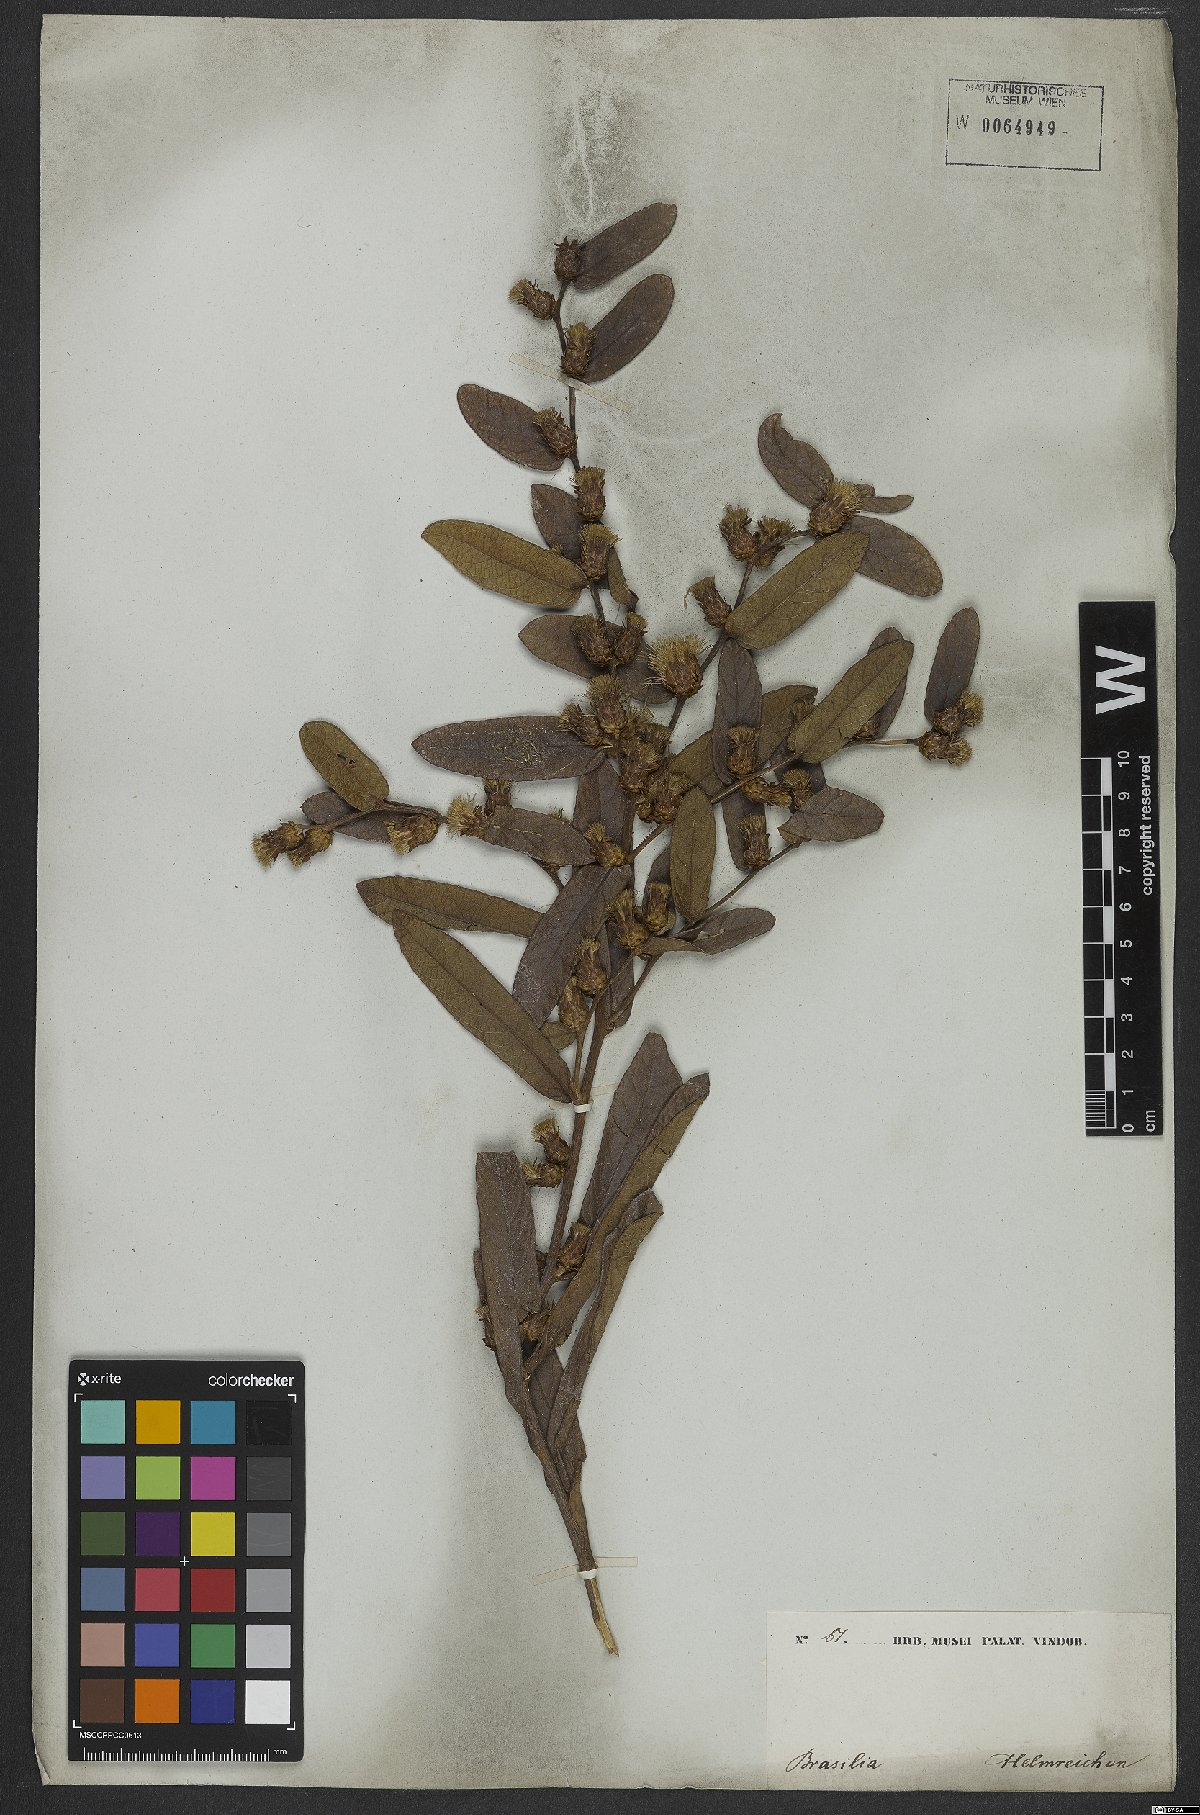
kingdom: Plantae
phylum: Tracheophyta
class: Magnoliopsida
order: Asterales
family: Asteraceae
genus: Lessingianthus
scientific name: Lessingianthus zuccarinianus
